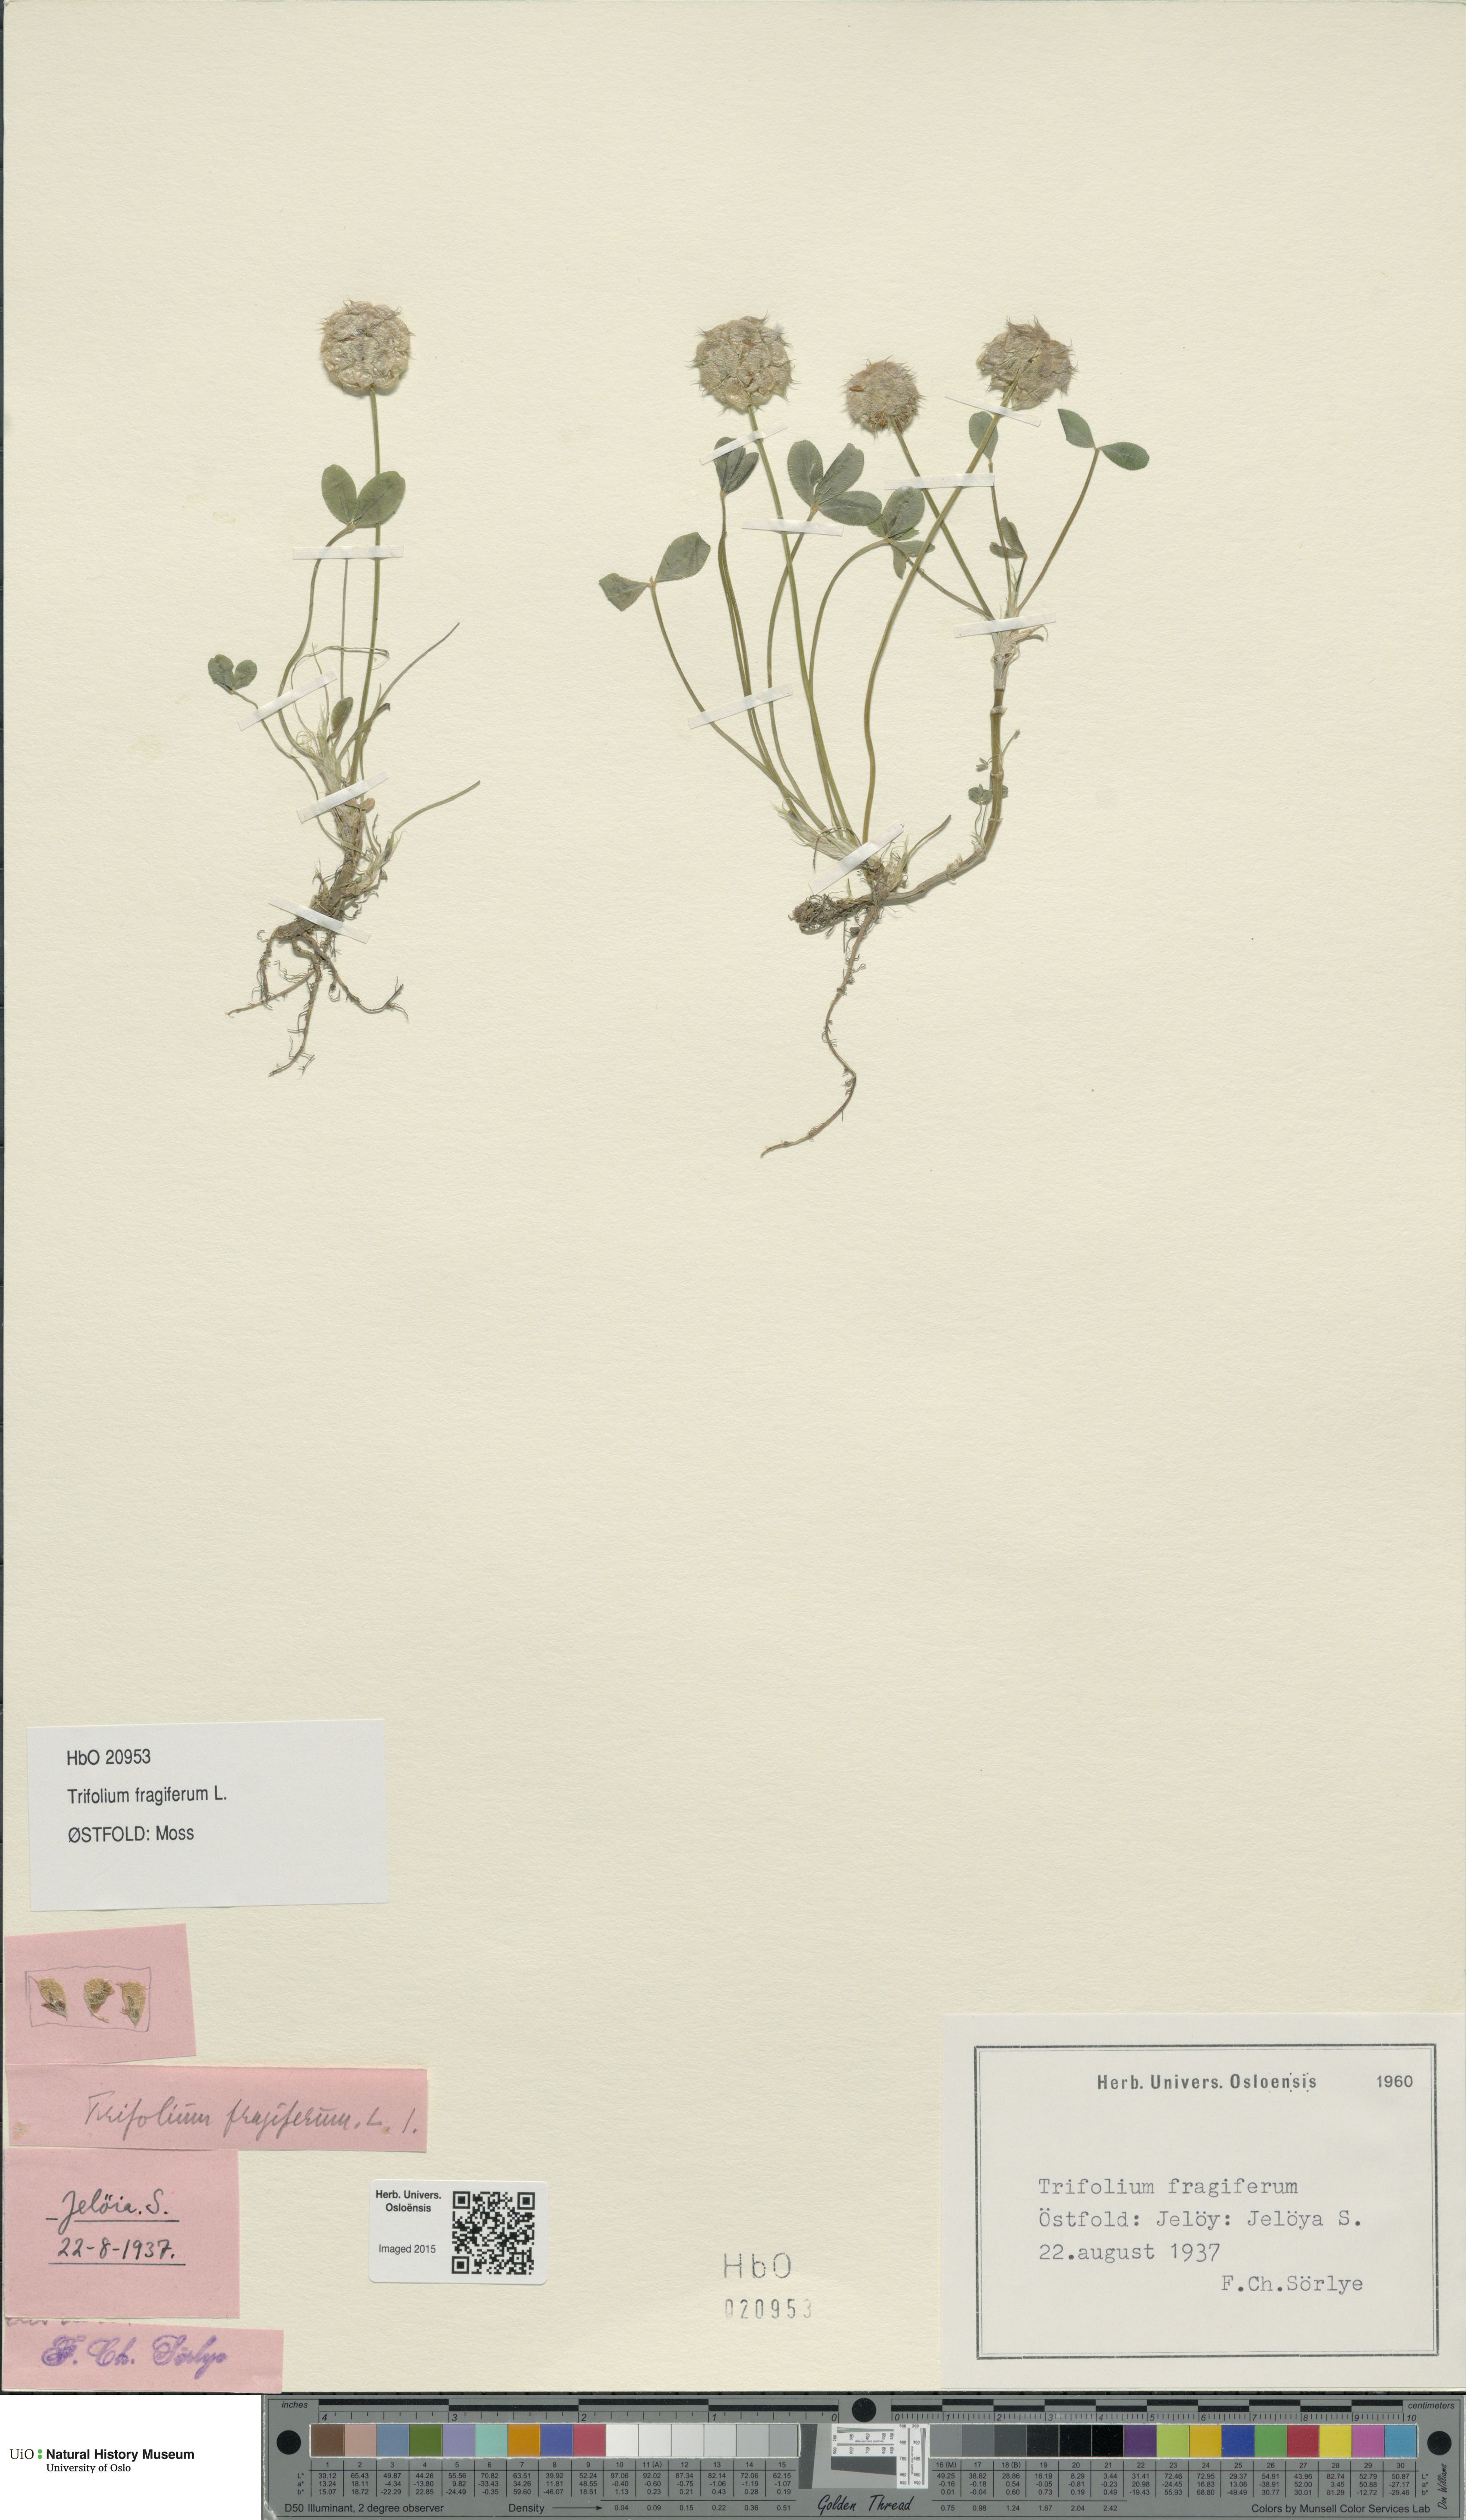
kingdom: Plantae
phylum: Tracheophyta
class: Magnoliopsida
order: Fabales
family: Fabaceae
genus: Trifolium
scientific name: Trifolium fragiferum
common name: Strawberry clover
